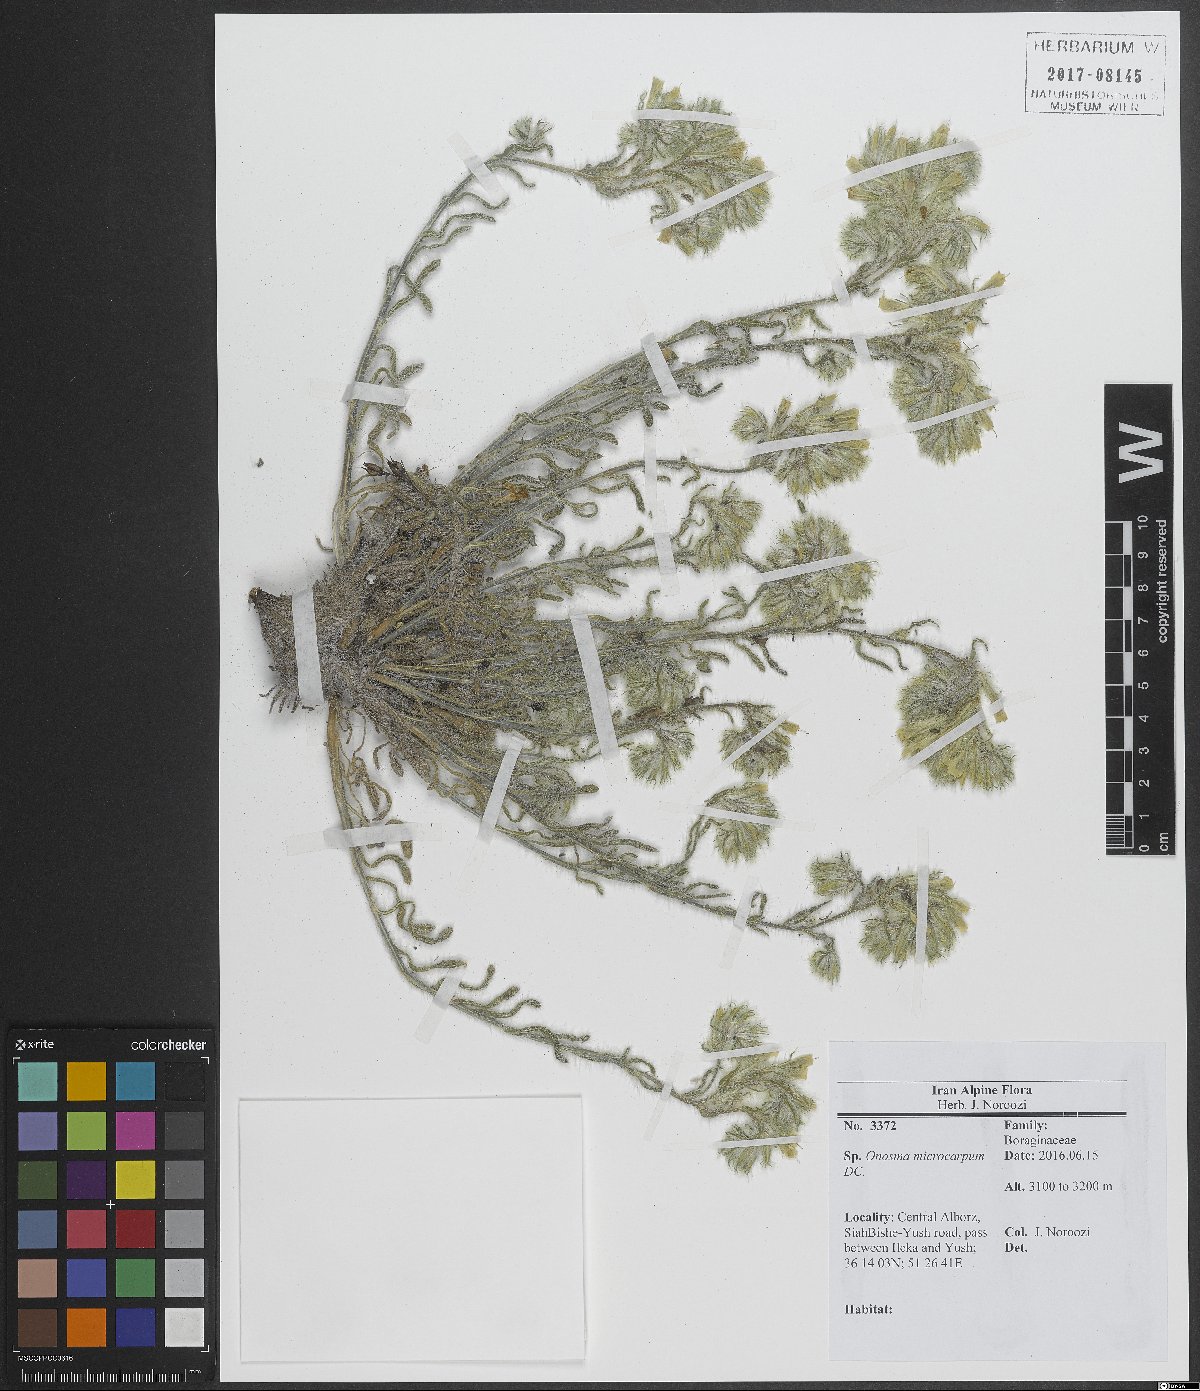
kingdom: Plantae
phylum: Tracheophyta
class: Magnoliopsida
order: Boraginales
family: Boraginaceae
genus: Onosma
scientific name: Onosma microcarpa
